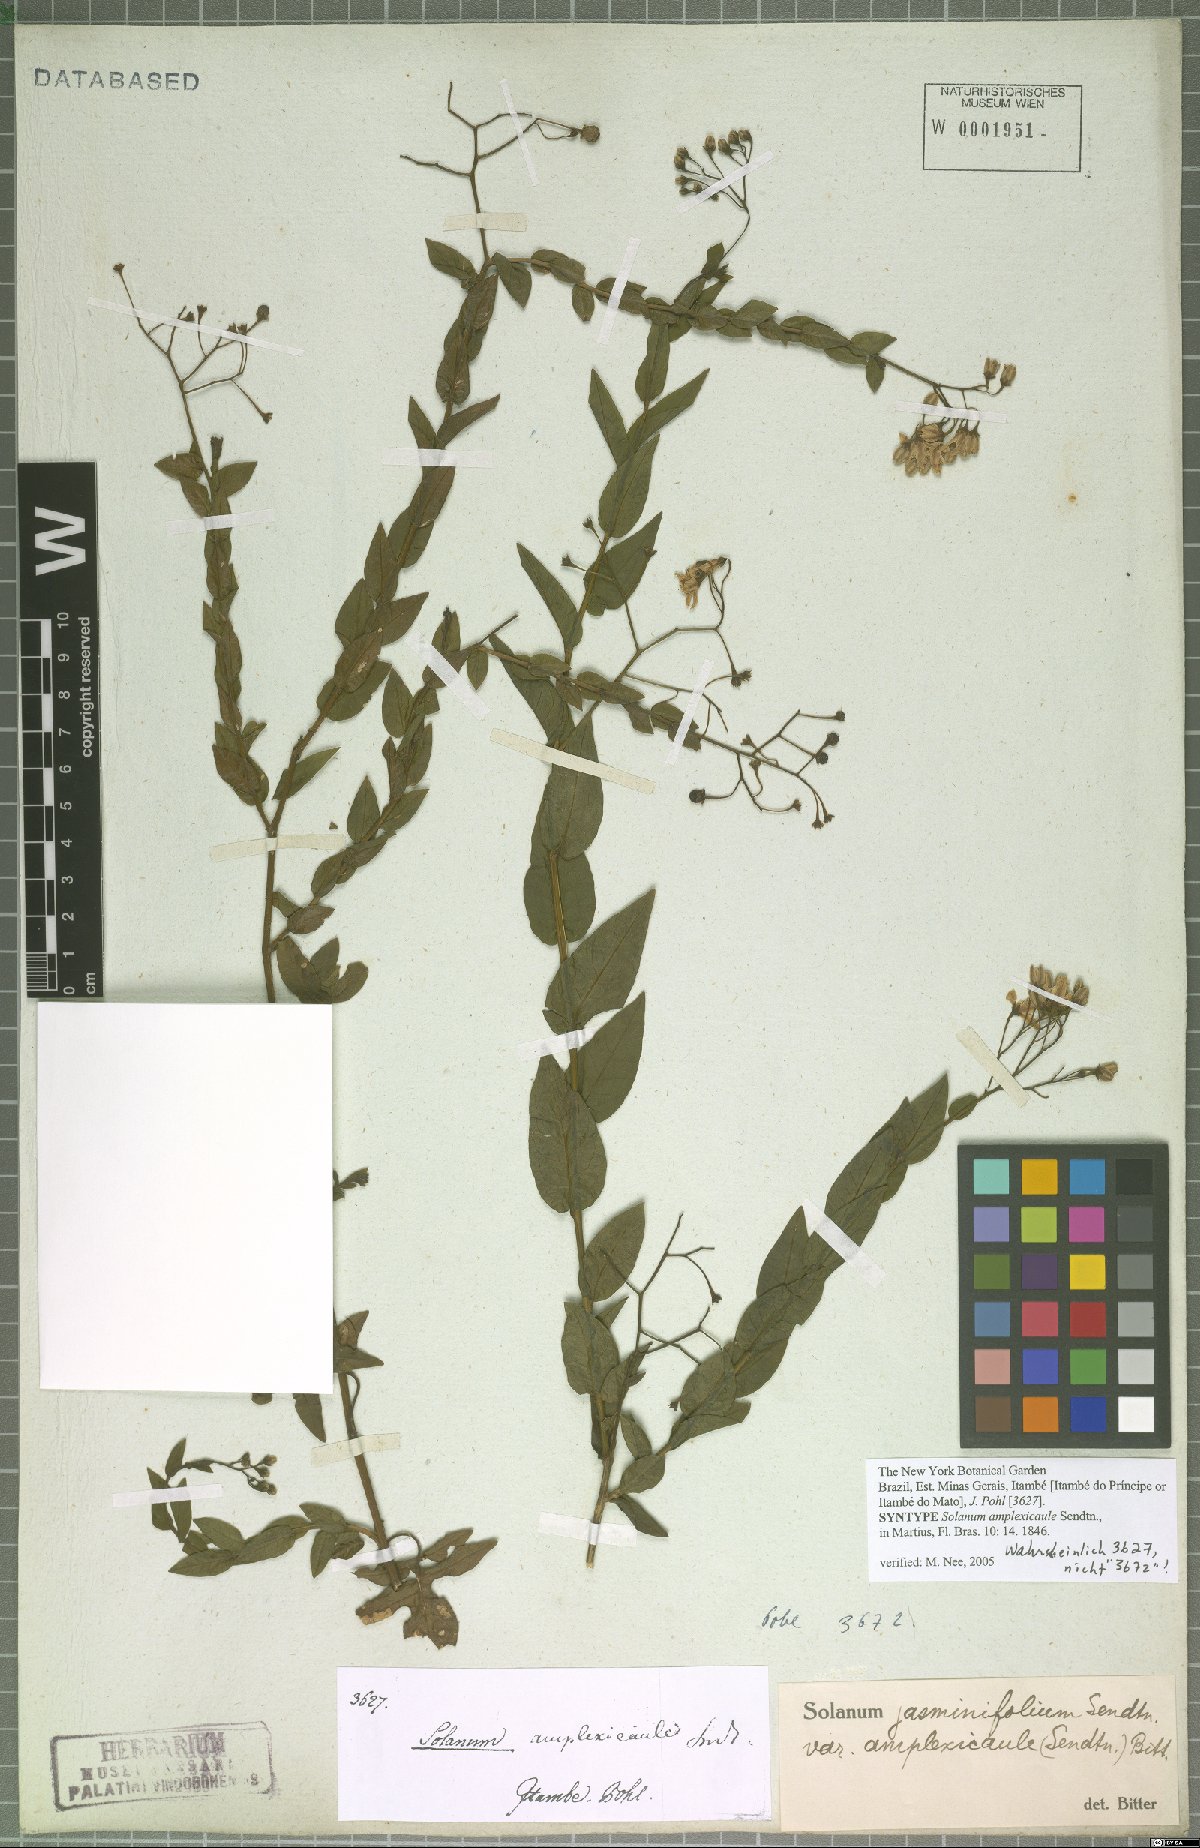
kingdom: Plantae
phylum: Tracheophyta
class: Magnoliopsida
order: Solanales
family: Solanaceae
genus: Solanum
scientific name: Solanum viscosissimum
